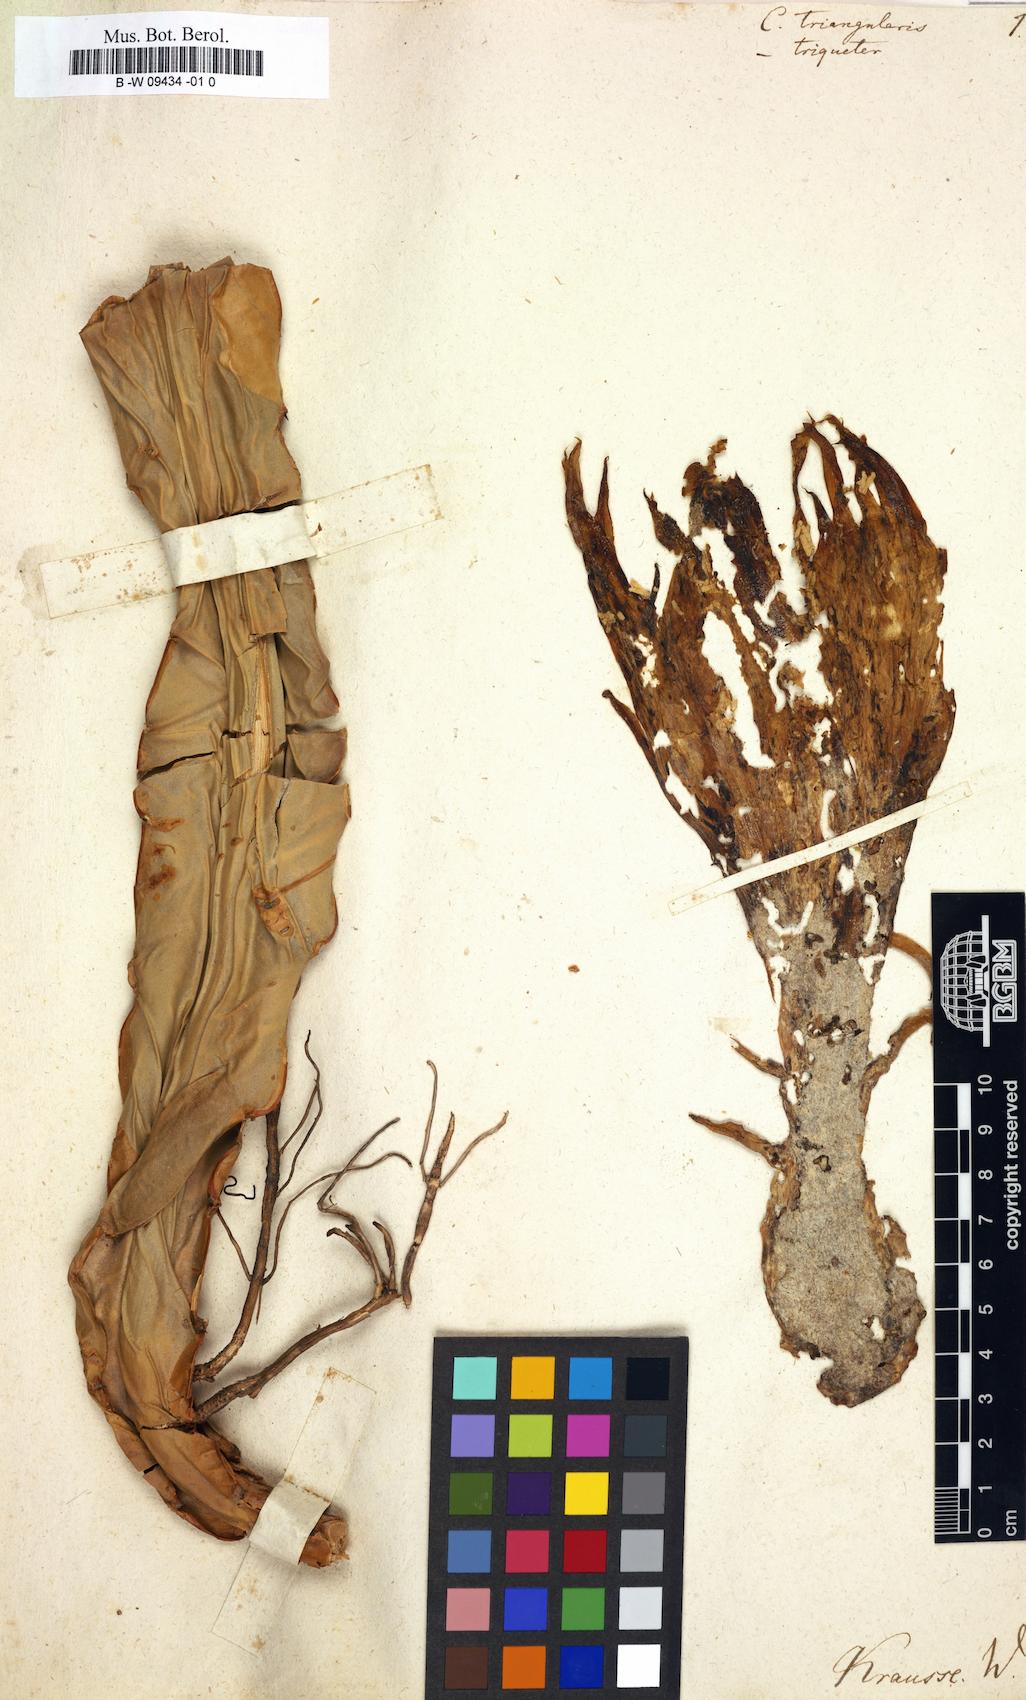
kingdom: Plantae
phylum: Tracheophyta
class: Magnoliopsida
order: Caryophyllales
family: Cactaceae
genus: Selenicereus
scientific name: Selenicereus triangularis
